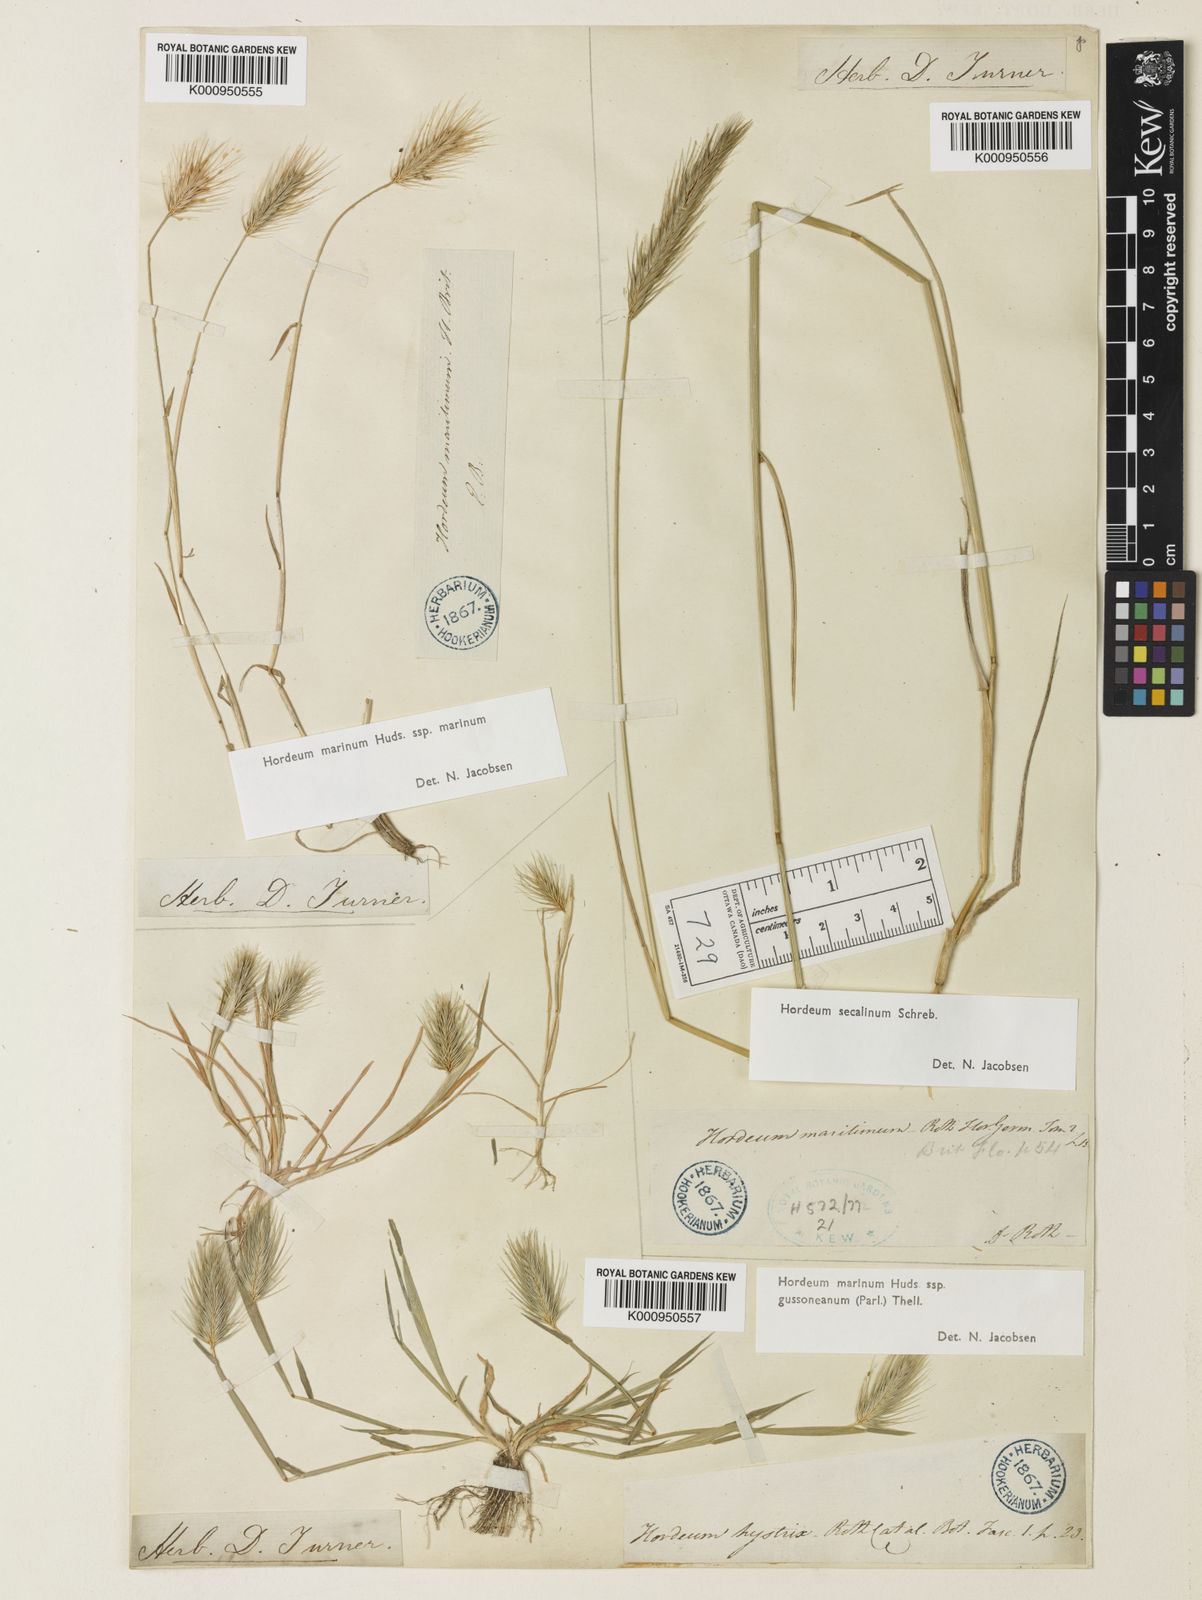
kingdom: Plantae
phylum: Tracheophyta
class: Liliopsida
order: Poales
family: Poaceae
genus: Hordeum
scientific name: Hordeum marinum
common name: Sea barley
